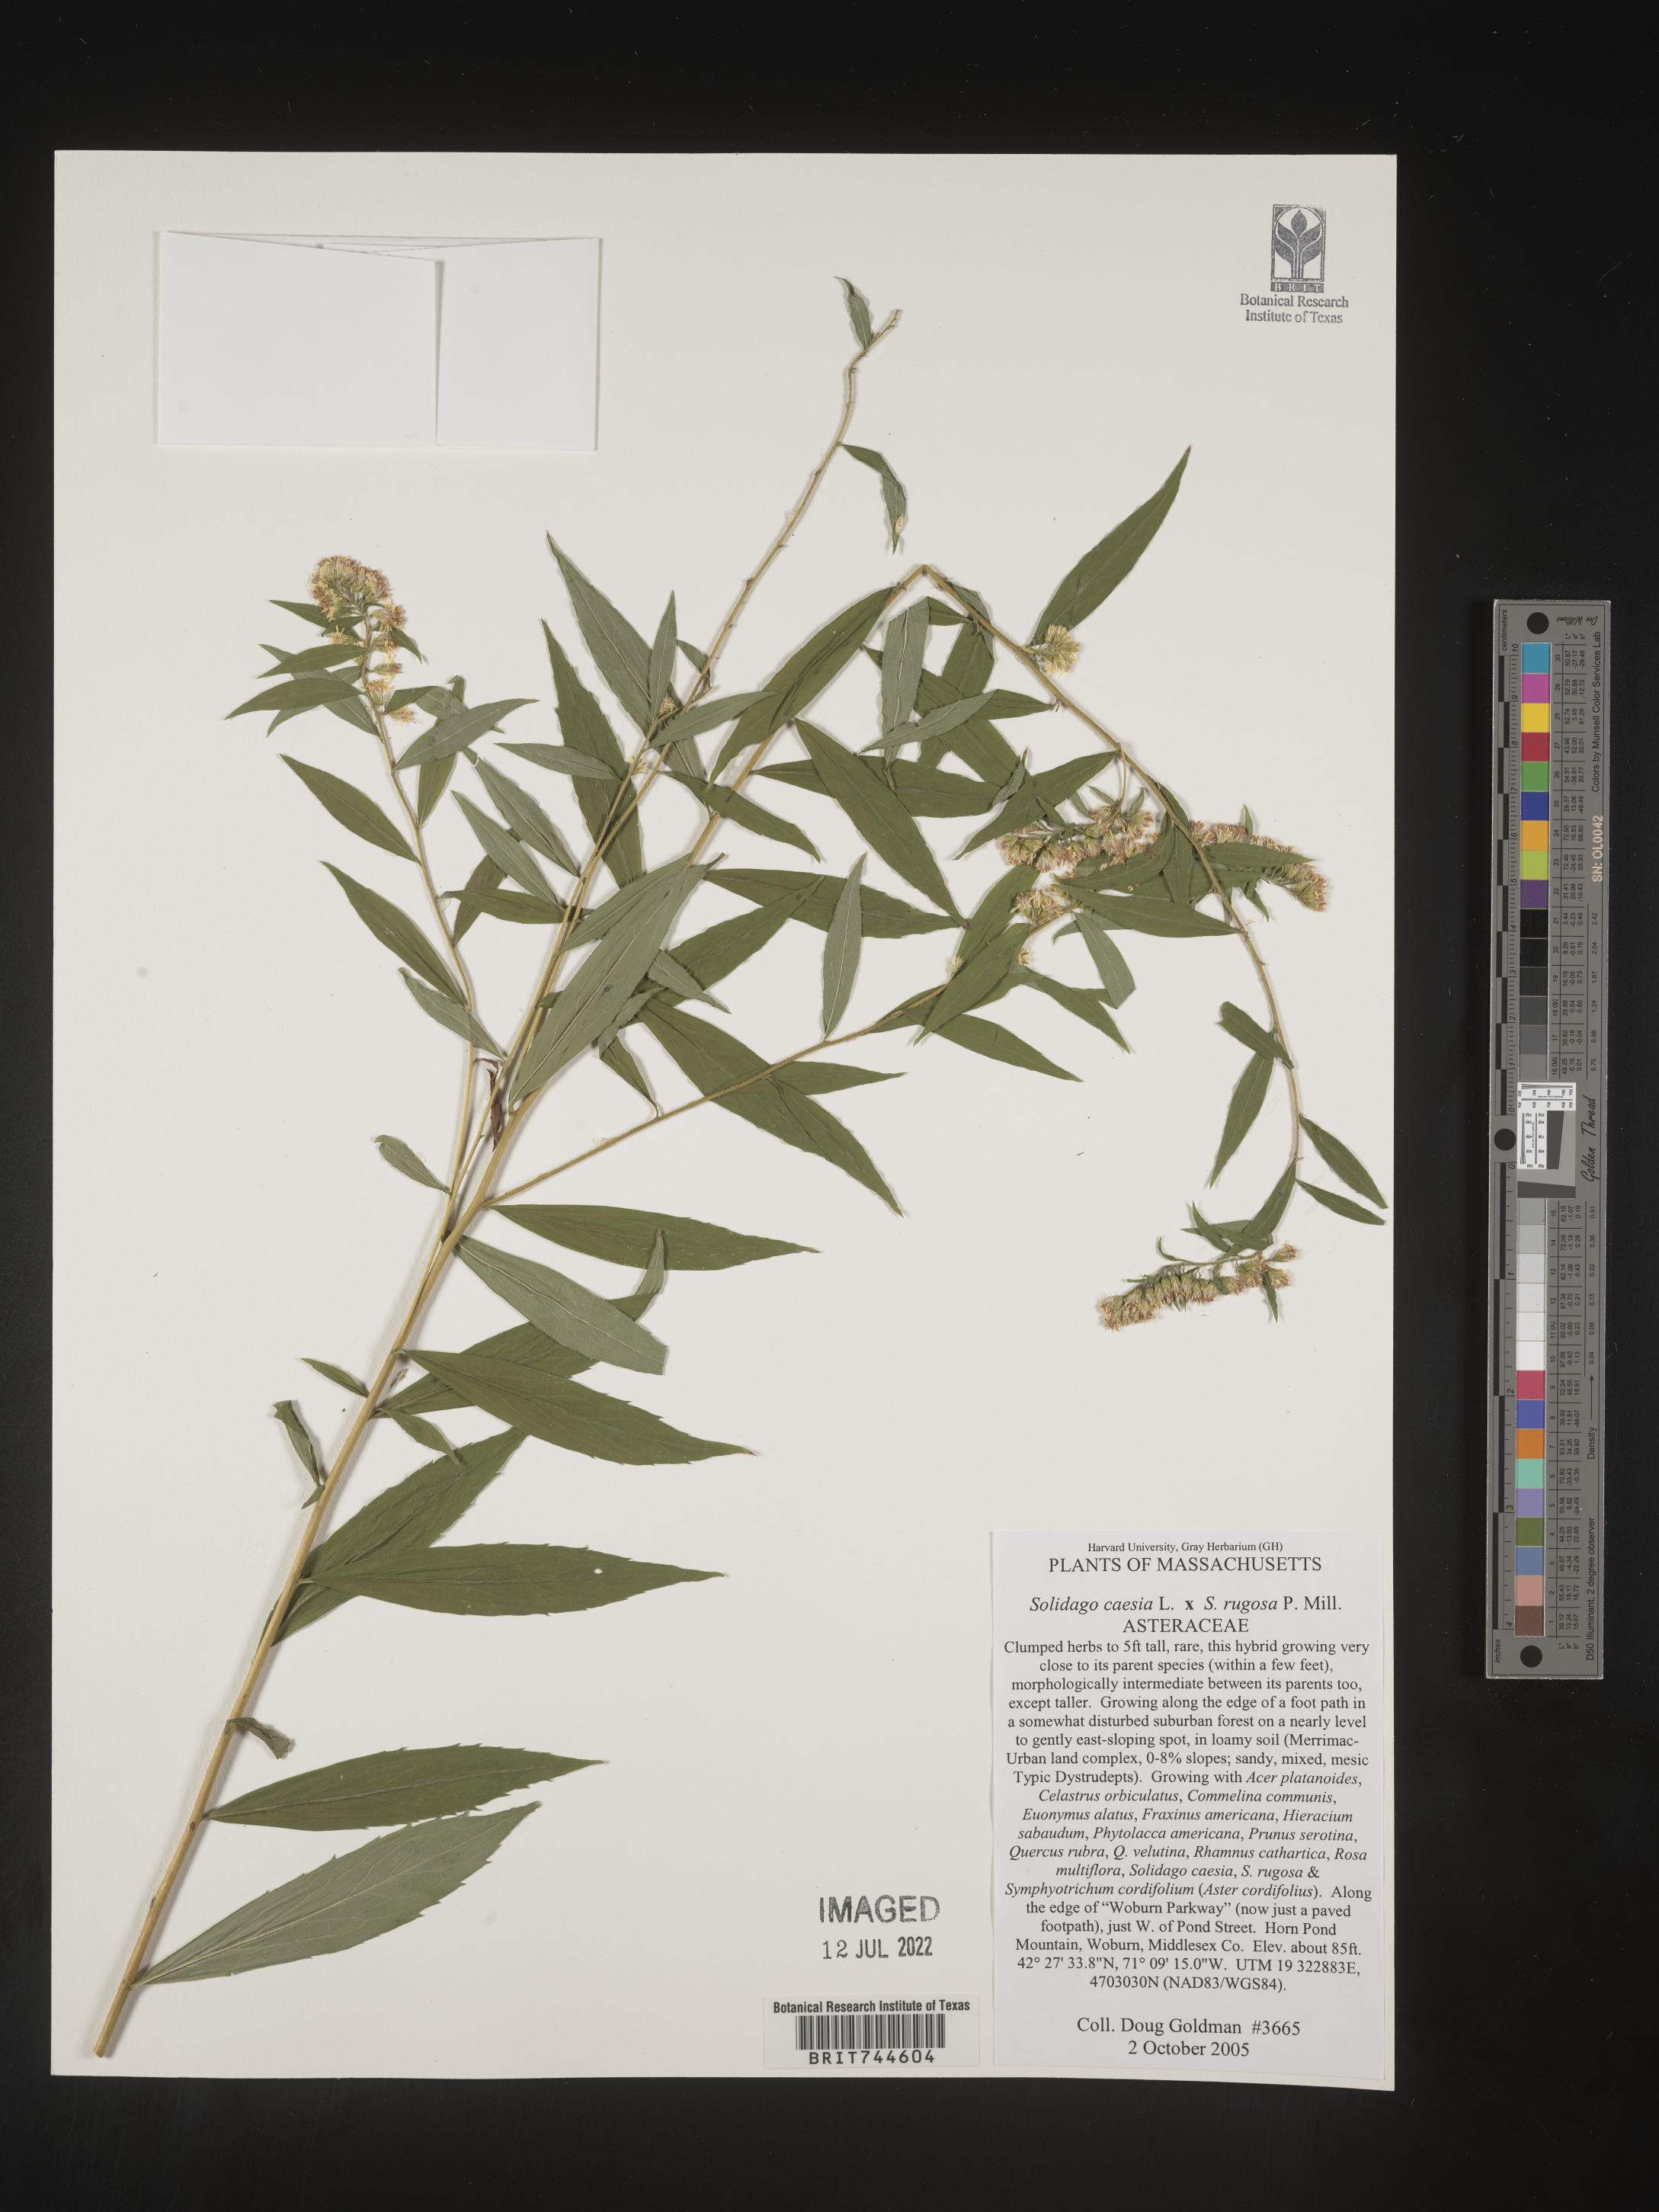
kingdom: Plantae
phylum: Tracheophyta
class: Magnoliopsida
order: Asterales
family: Asteraceae
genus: Solidago
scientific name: Solidago caesia
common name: Woodland goldenrod
